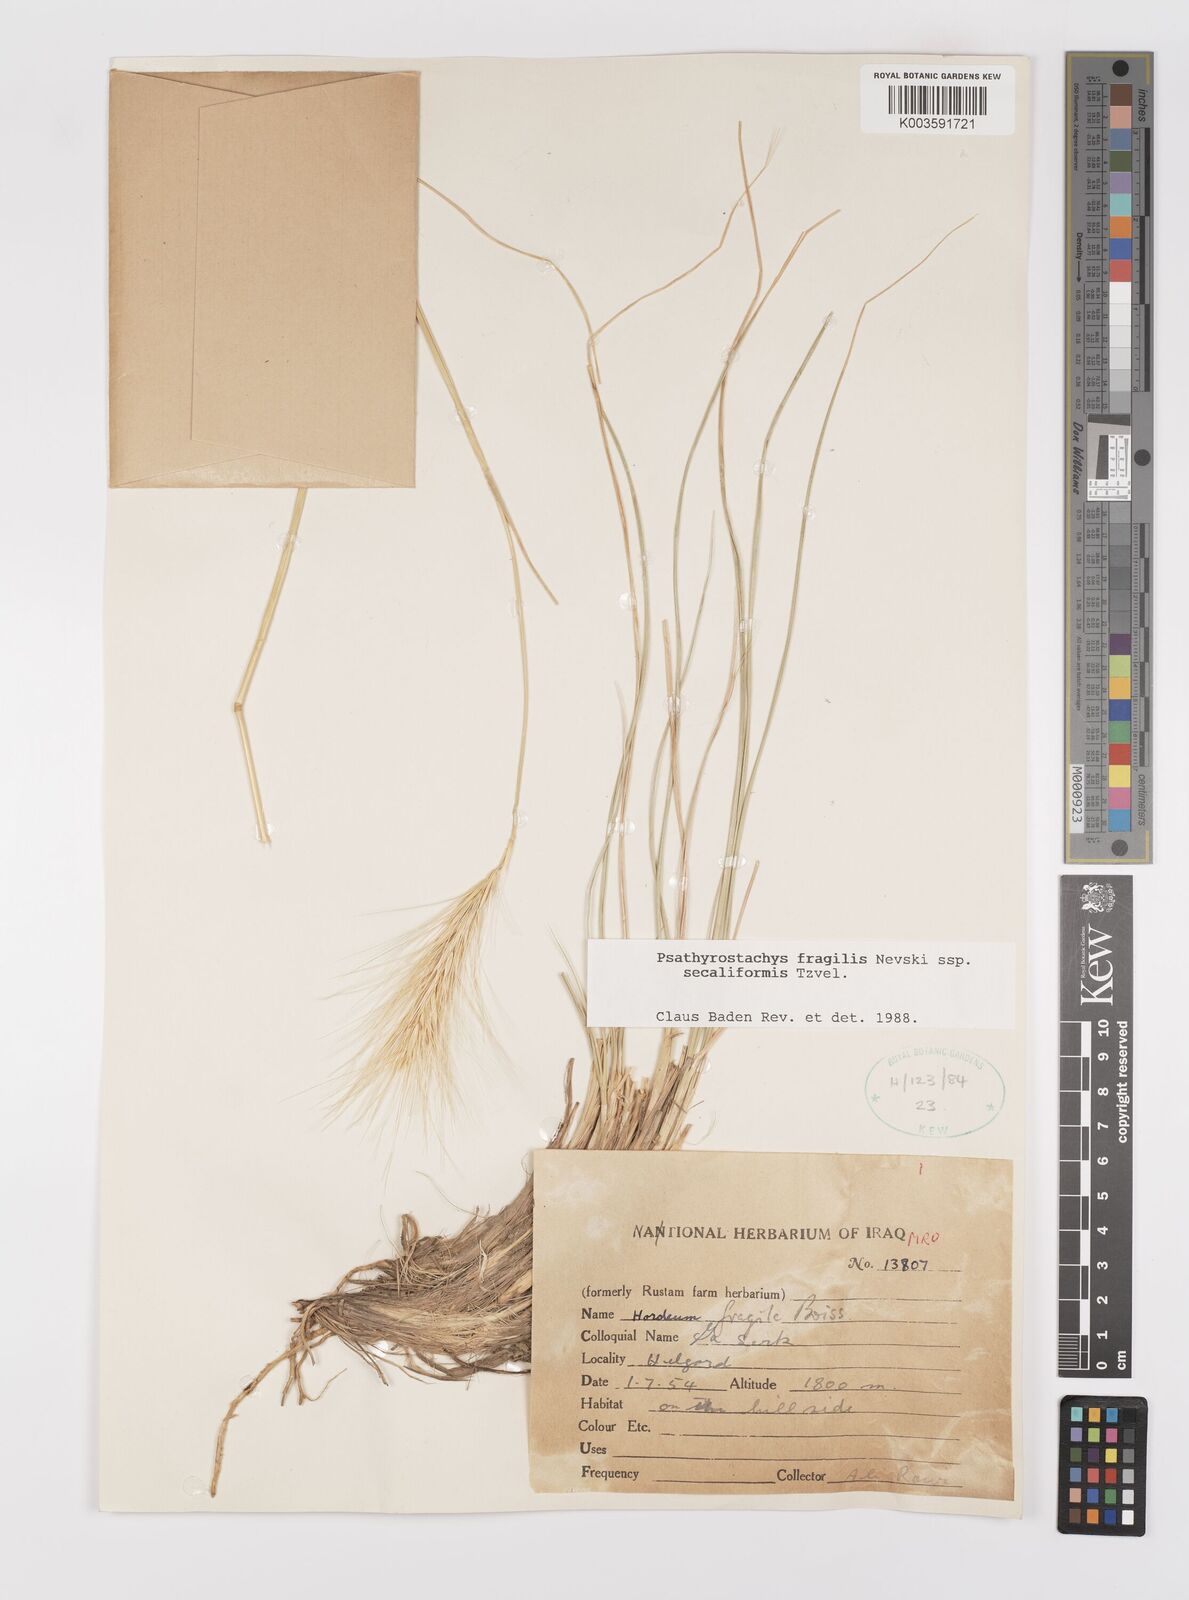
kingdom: Plantae
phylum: Tracheophyta
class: Liliopsida
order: Poales
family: Poaceae
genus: Psathyrostachys
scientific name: Psathyrostachys fragilis
